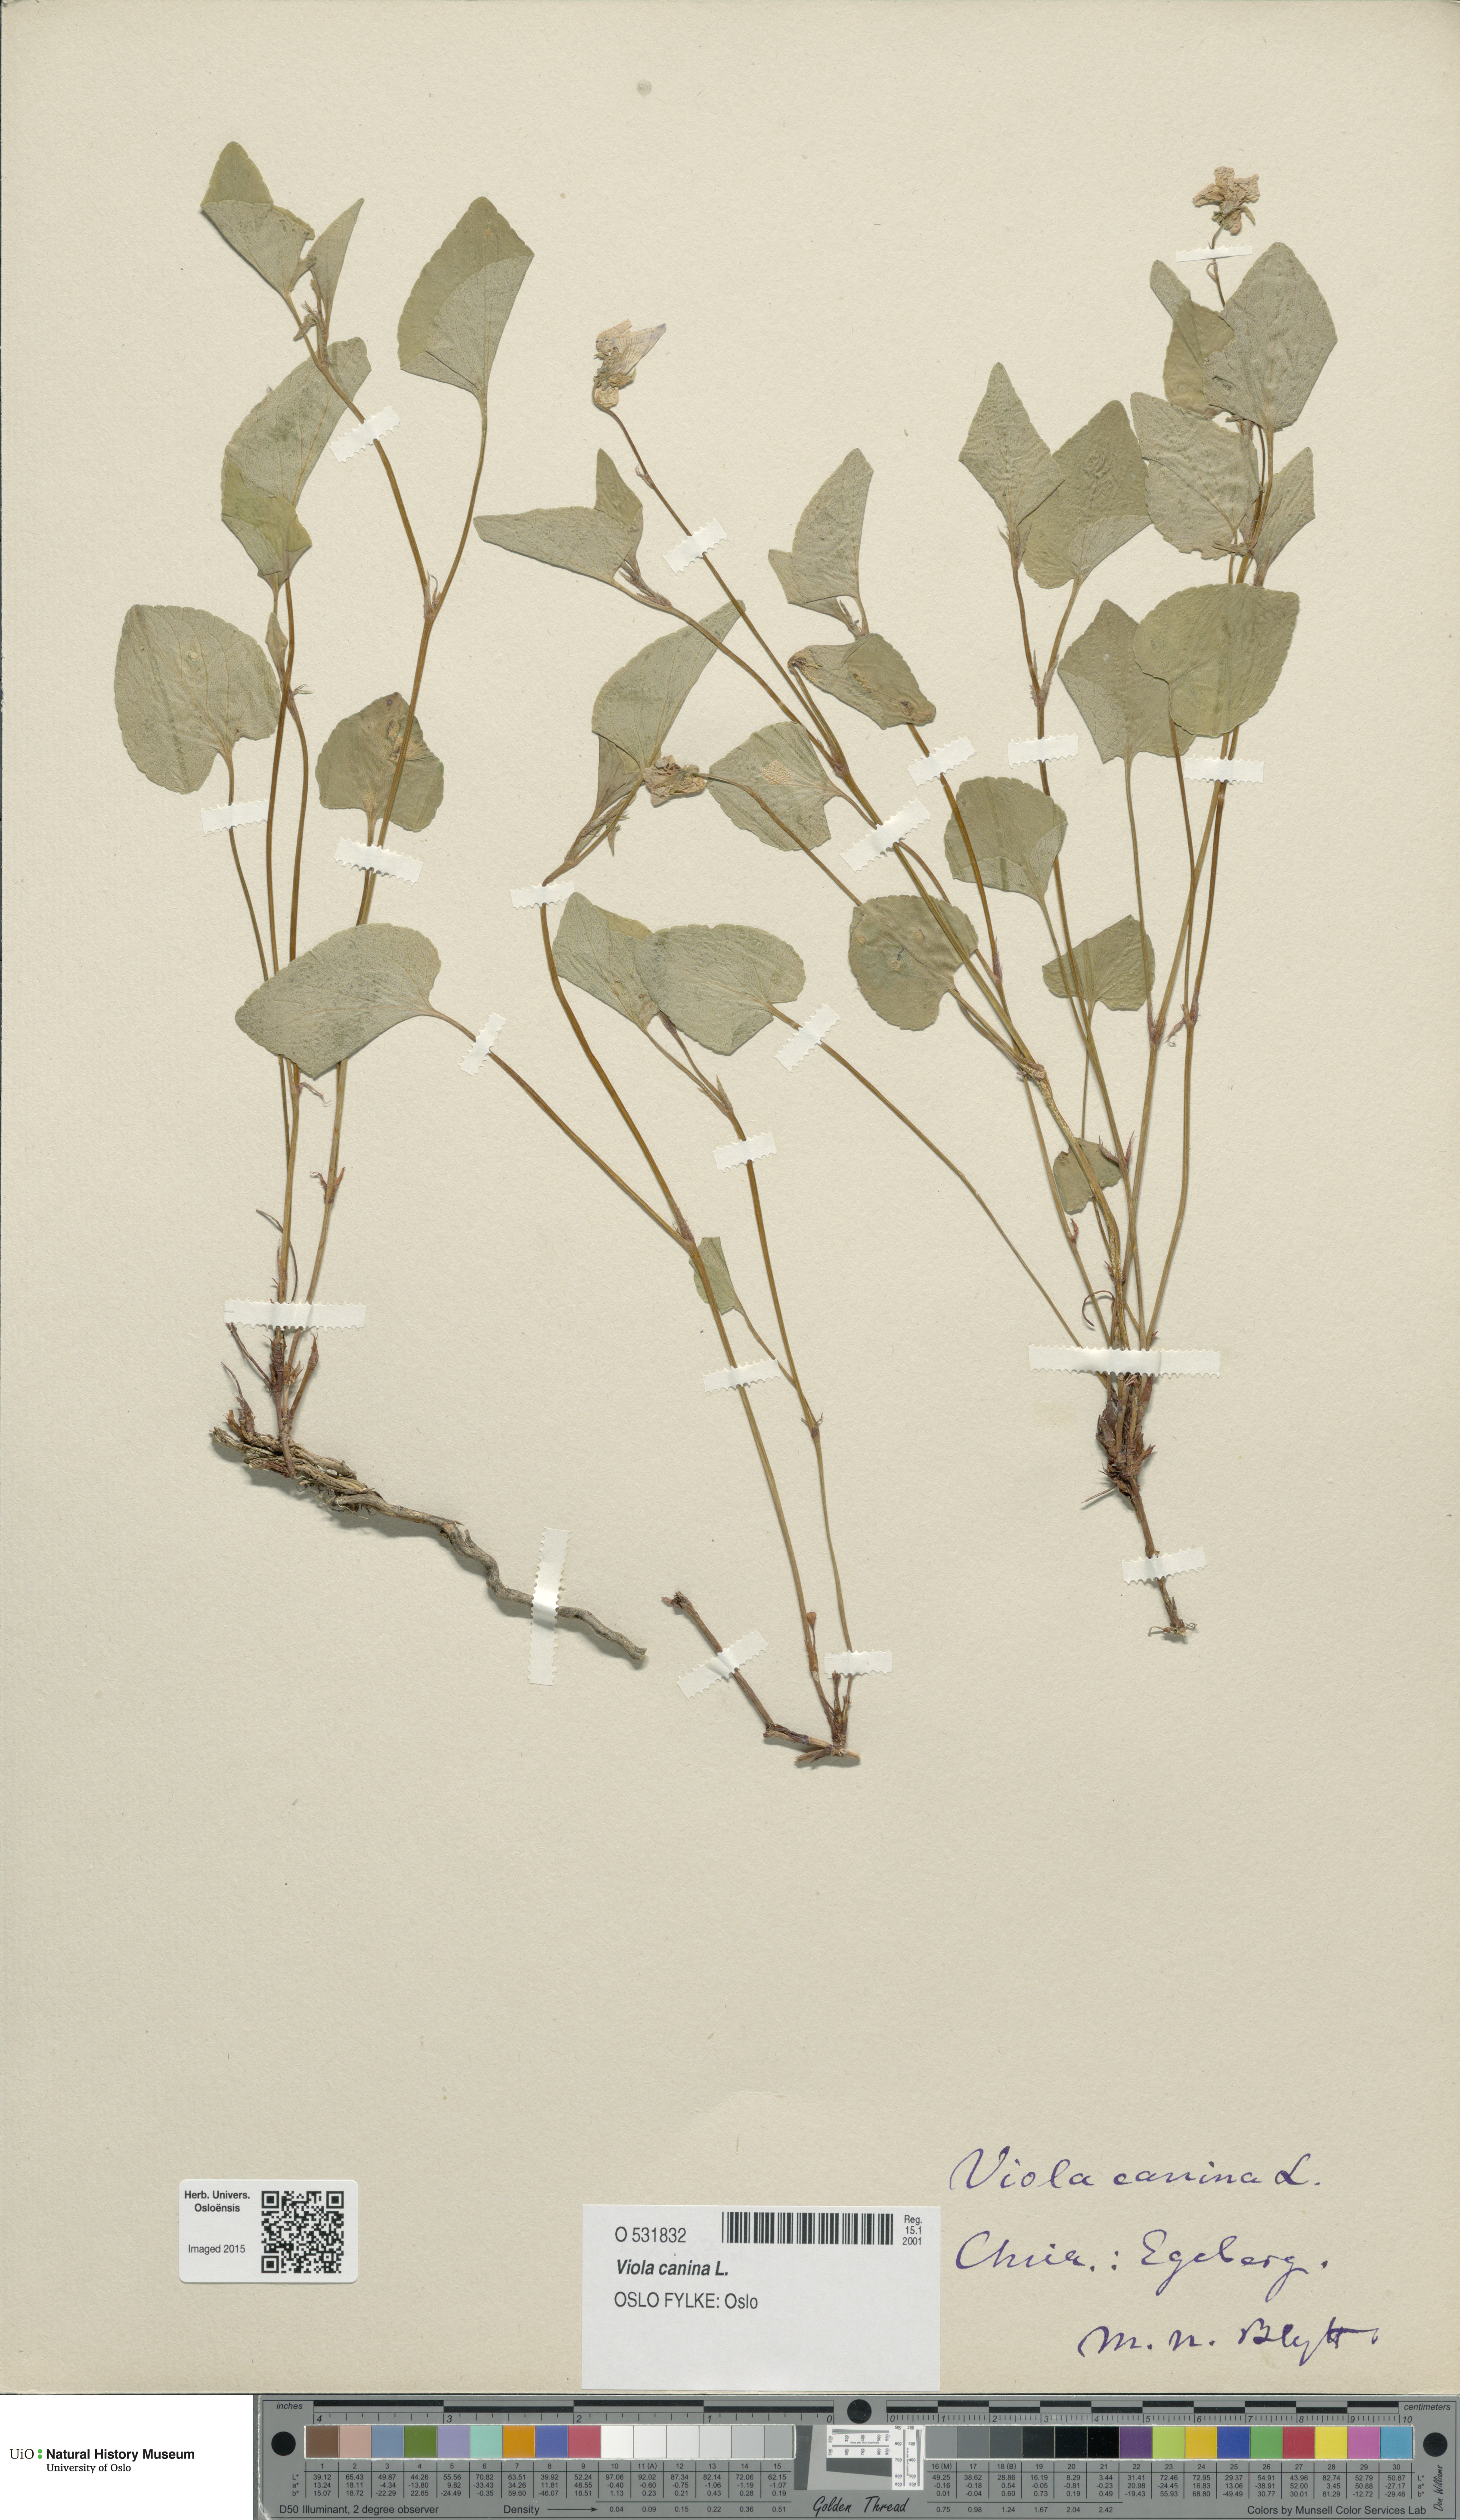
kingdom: Plantae
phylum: Tracheophyta
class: Magnoliopsida
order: Malpighiales
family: Violaceae
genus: Viola
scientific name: Viola canina
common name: Heath dog-violet
